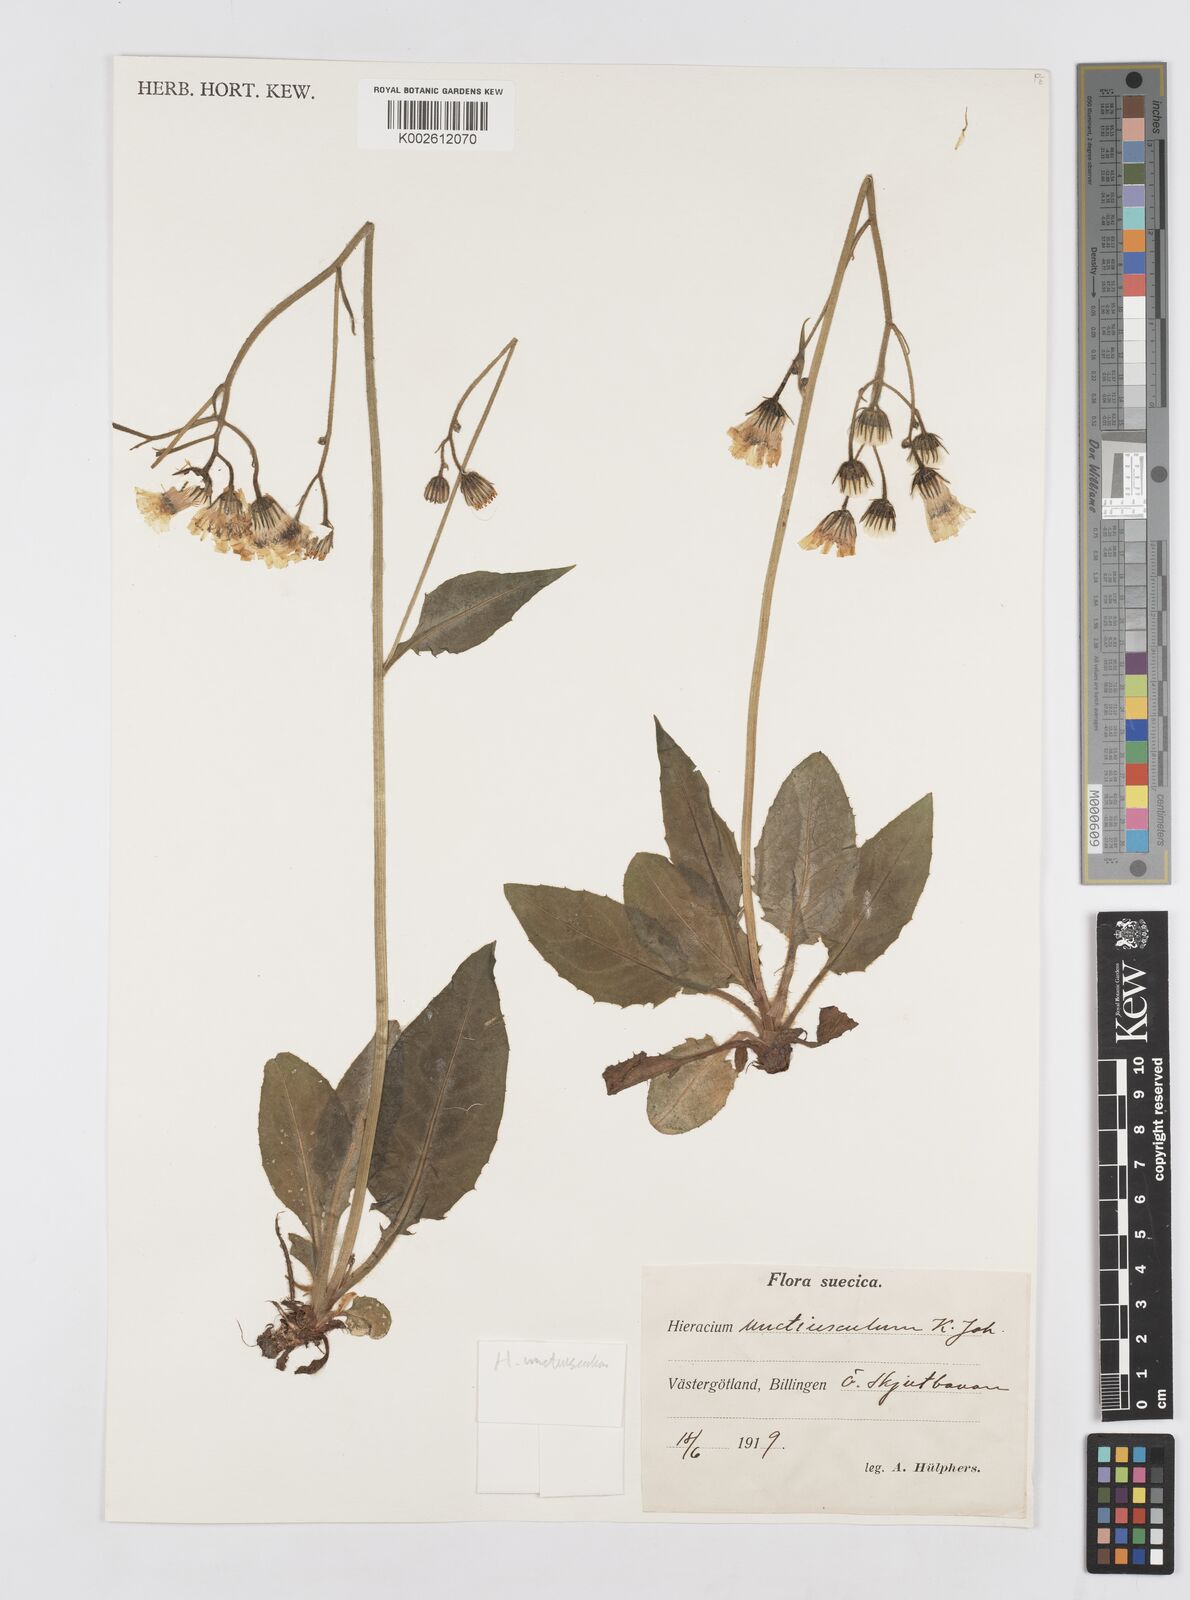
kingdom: Plantae
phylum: Tracheophyta
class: Magnoliopsida
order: Asterales
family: Asteraceae
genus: Hieracium
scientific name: Hieracium unctiusculum
